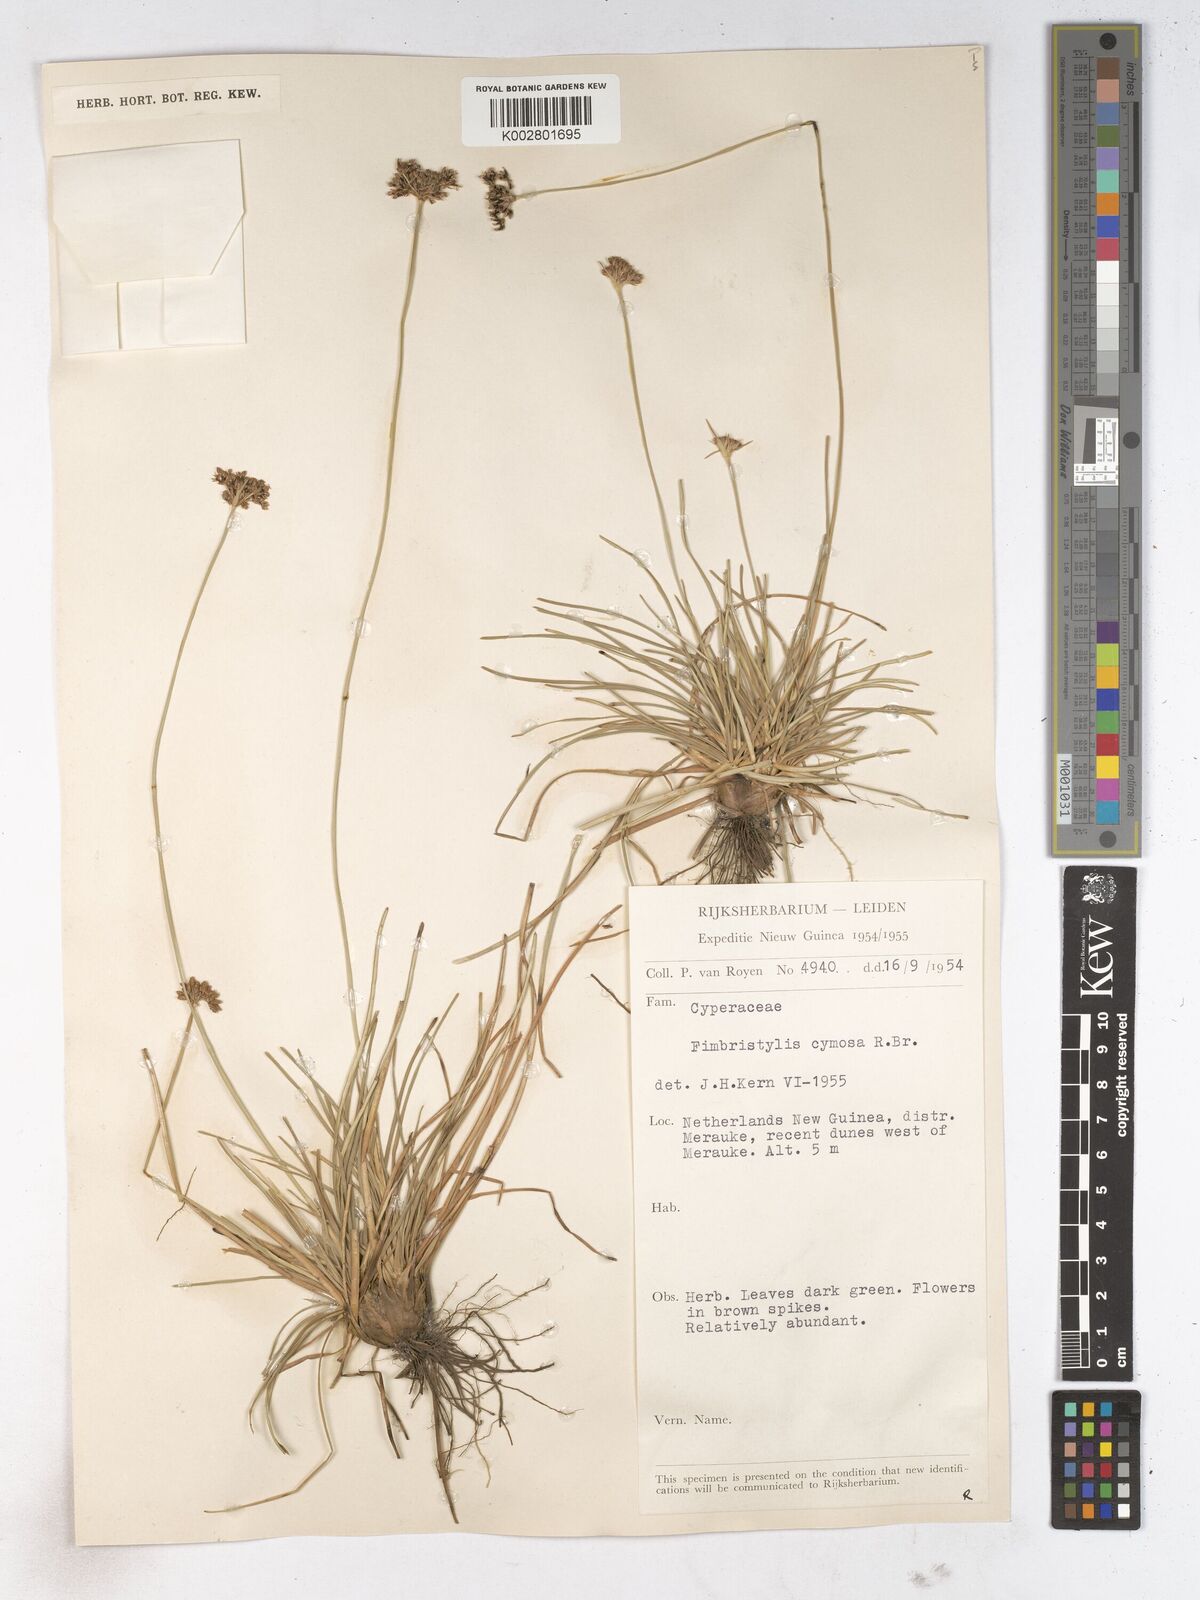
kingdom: Plantae
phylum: Tracheophyta
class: Liliopsida
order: Poales
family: Cyperaceae
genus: Fimbristylis
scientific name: Fimbristylis cymosa
